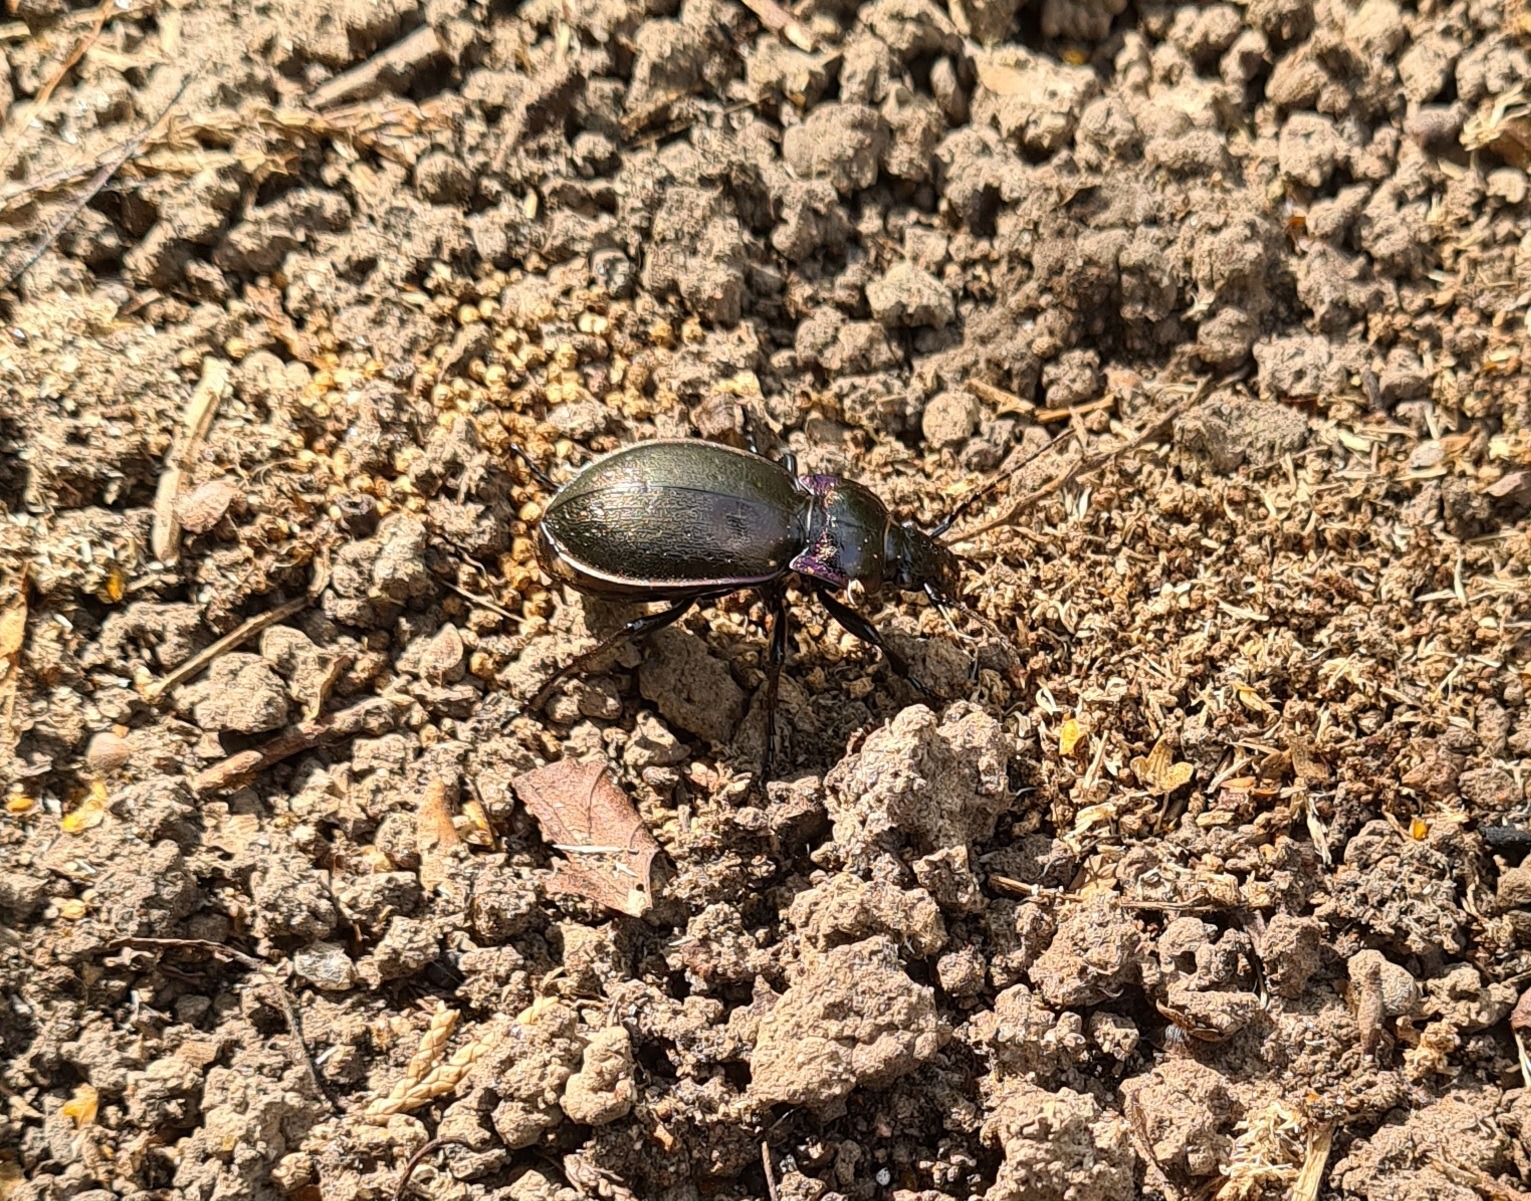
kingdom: Animalia
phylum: Arthropoda
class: Insecta
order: Coleoptera
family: Carabidae
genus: Carabus
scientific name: Carabus nemoralis
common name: Kratløber
